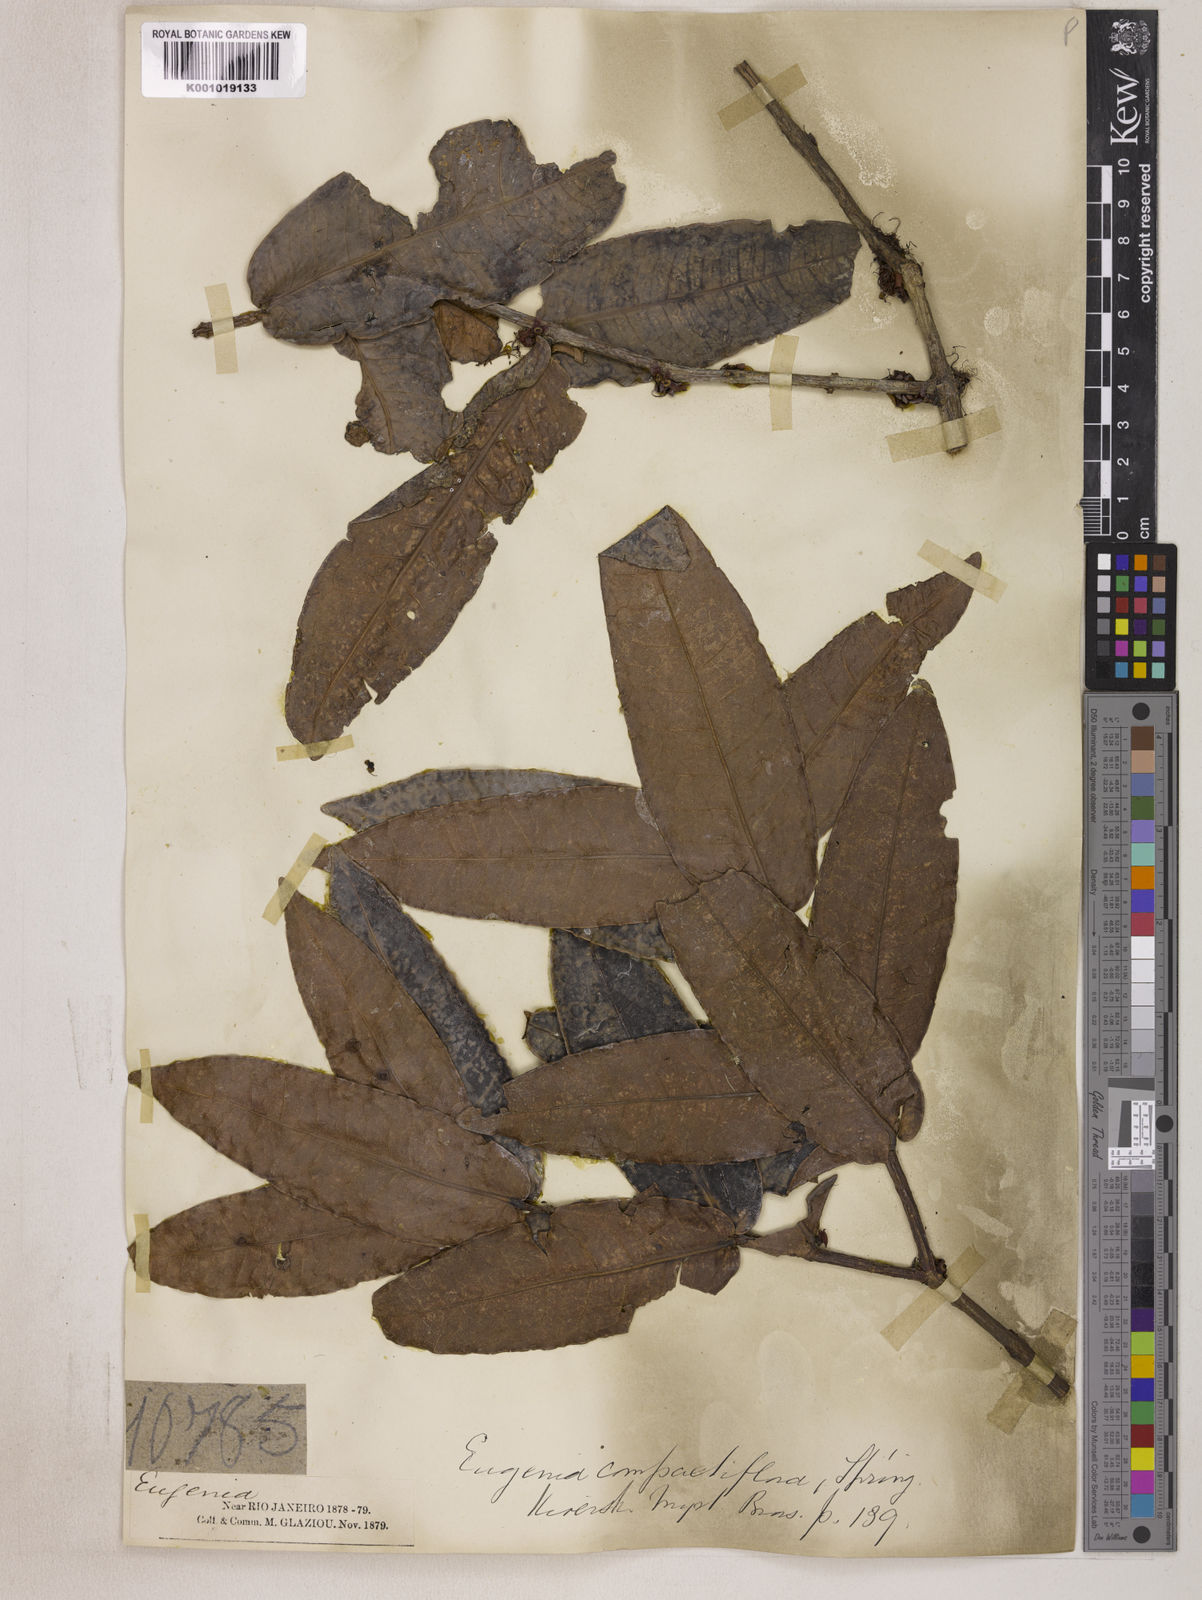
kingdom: Plantae
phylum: Tracheophyta
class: Magnoliopsida
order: Myrtales
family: Myrtaceae
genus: Eugenia
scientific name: Eugenia monosperma
